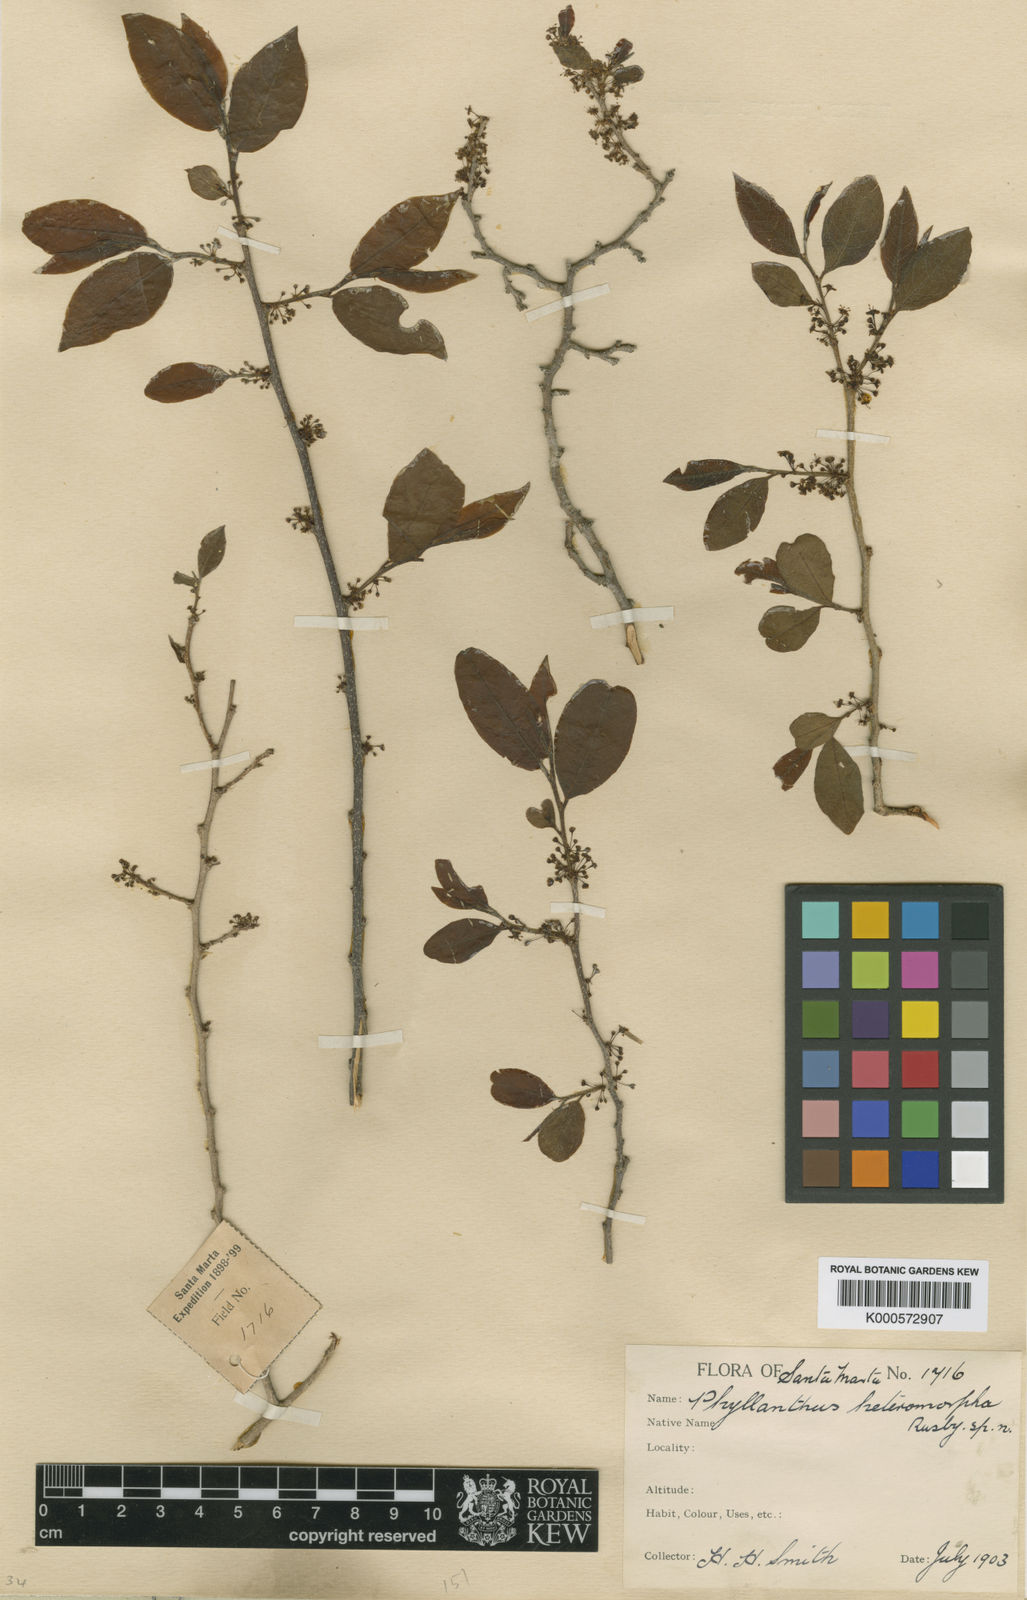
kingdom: Plantae
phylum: Tracheophyta
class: Magnoliopsida
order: Malpighiales
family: Phyllanthaceae
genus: Margaritaria
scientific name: Margaritaria nobilis
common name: Goose berry
